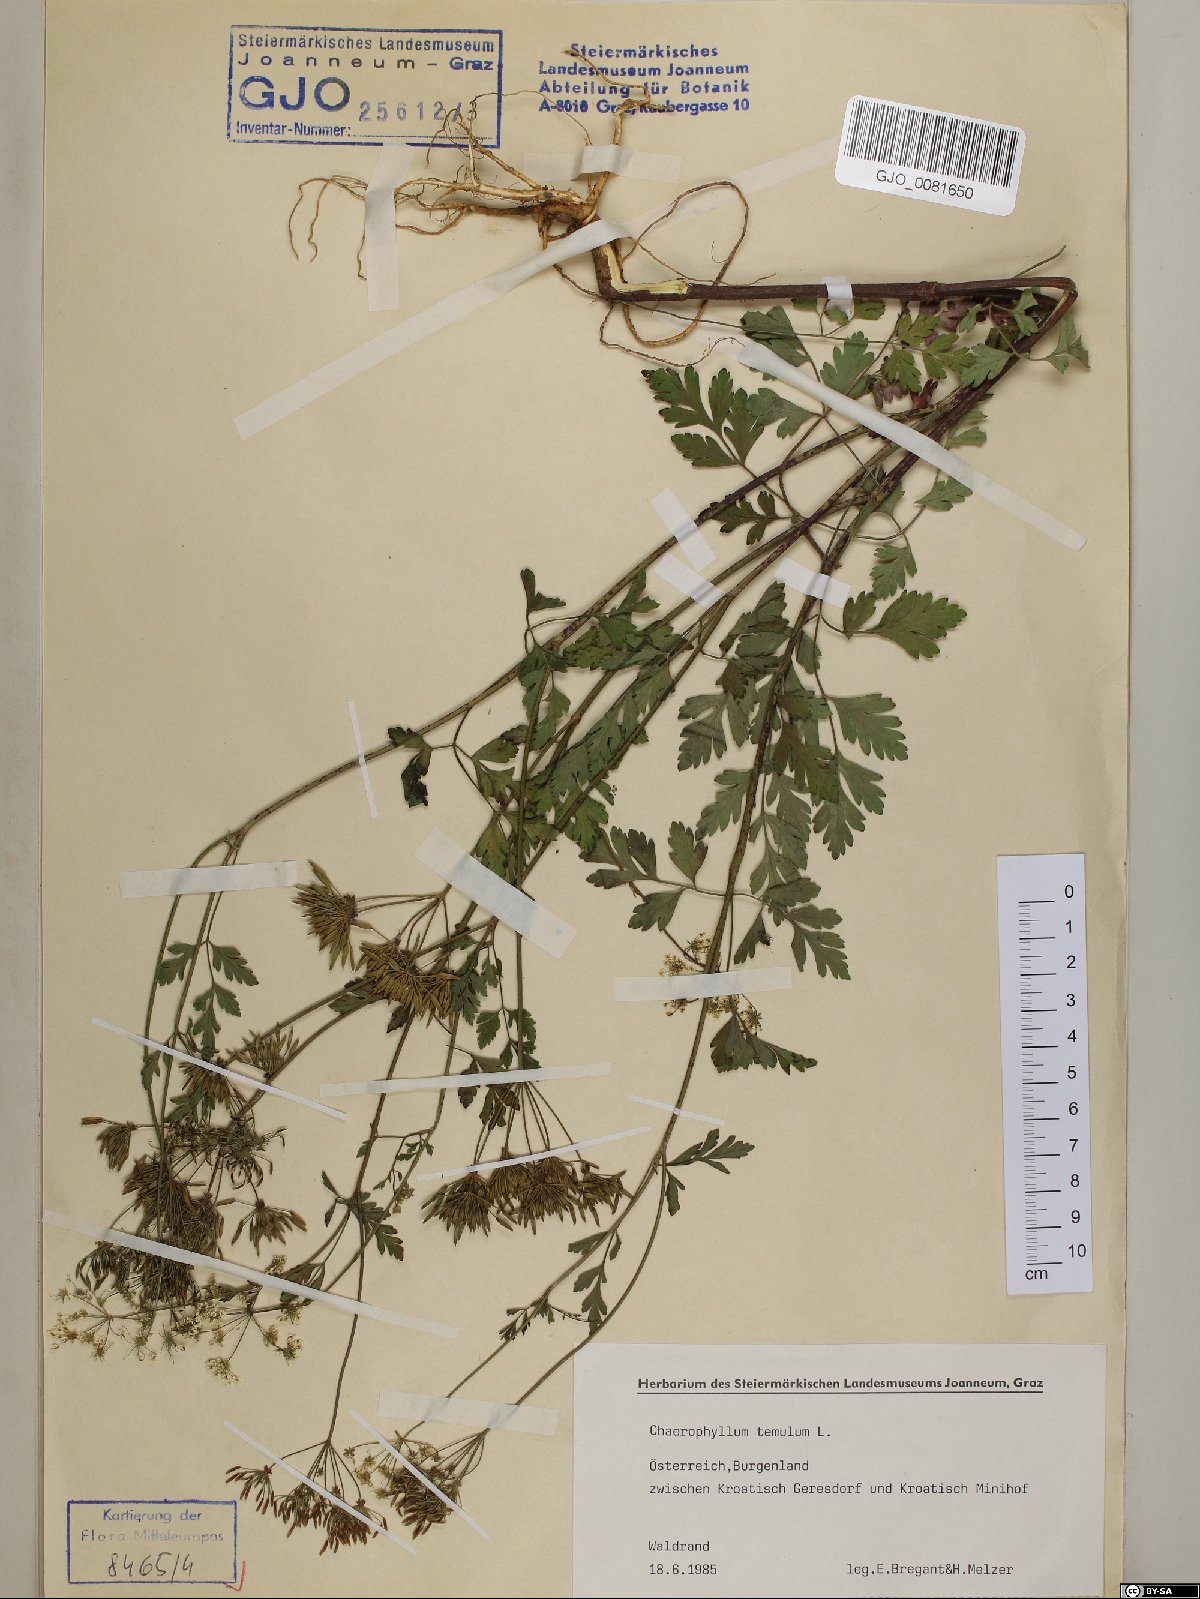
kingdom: Plantae
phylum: Tracheophyta
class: Magnoliopsida
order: Apiales
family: Apiaceae
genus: Chaerophyllum
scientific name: Chaerophyllum temulum
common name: Rough chervil
